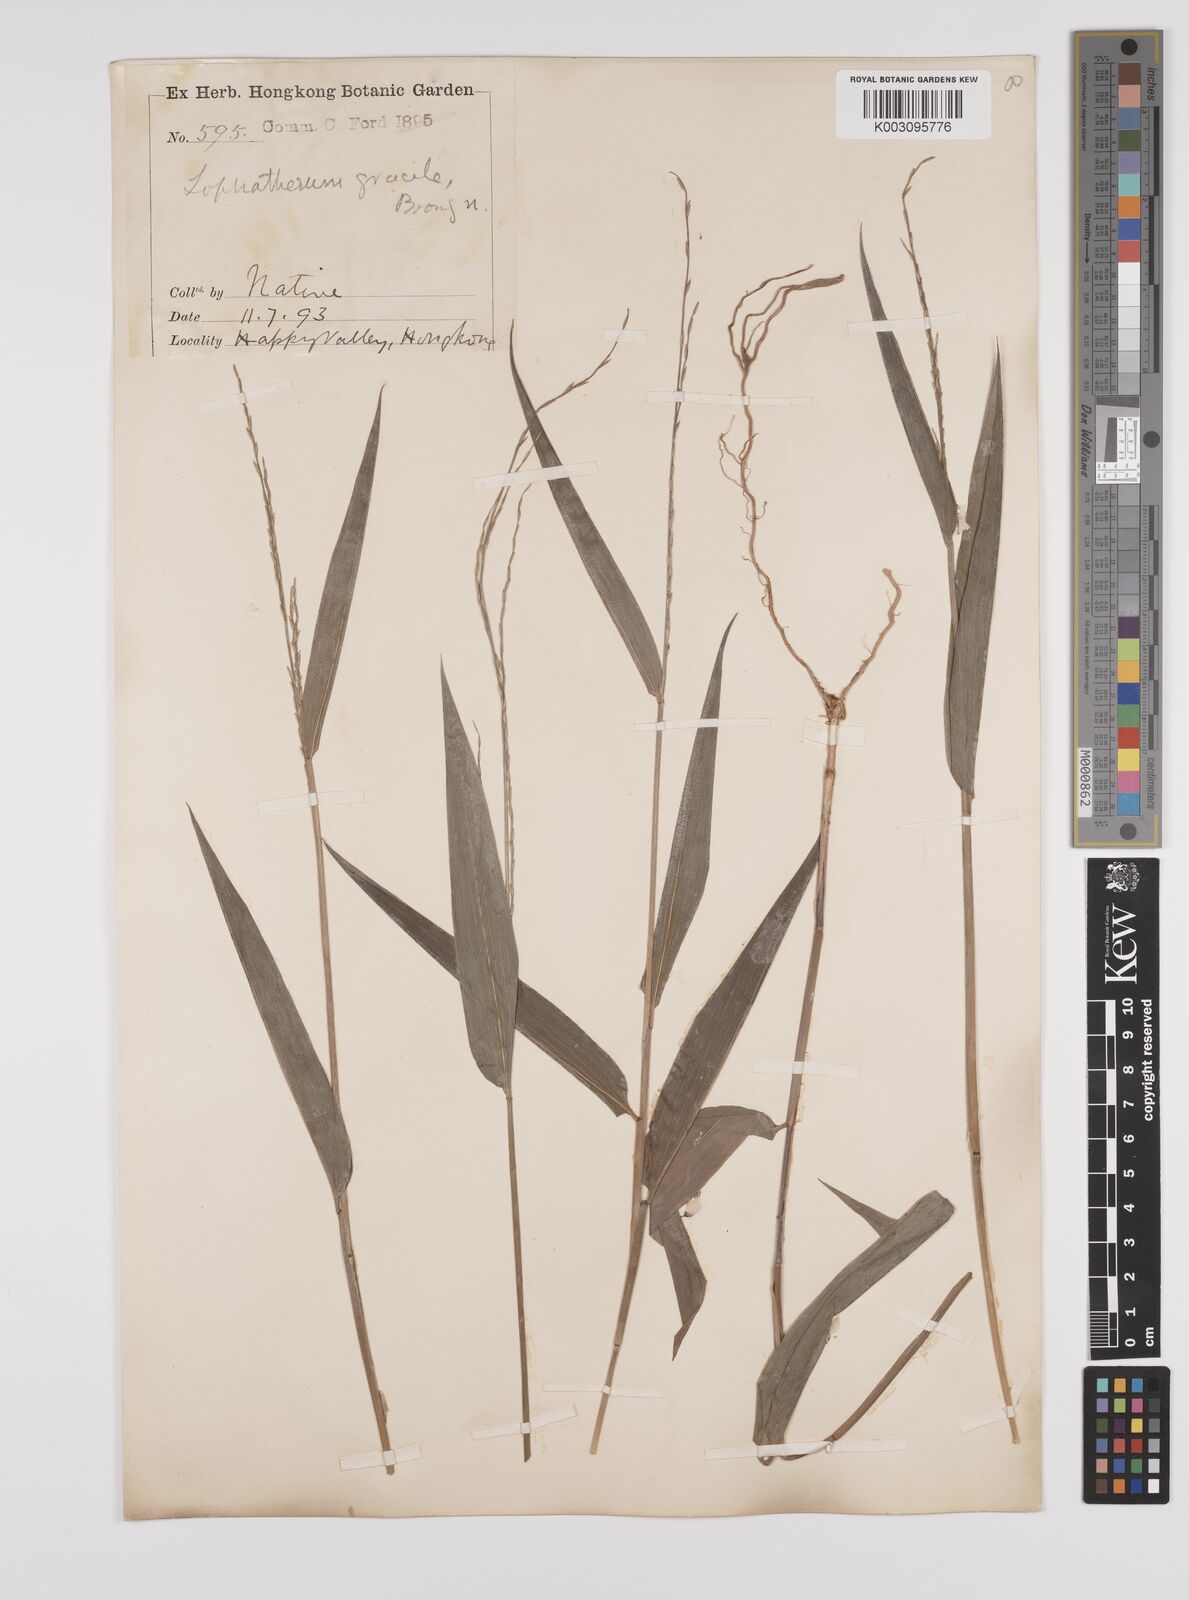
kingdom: Plantae
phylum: Tracheophyta
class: Liliopsida
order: Poales
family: Poaceae
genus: Lophatherum
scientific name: Lophatherum gracile
